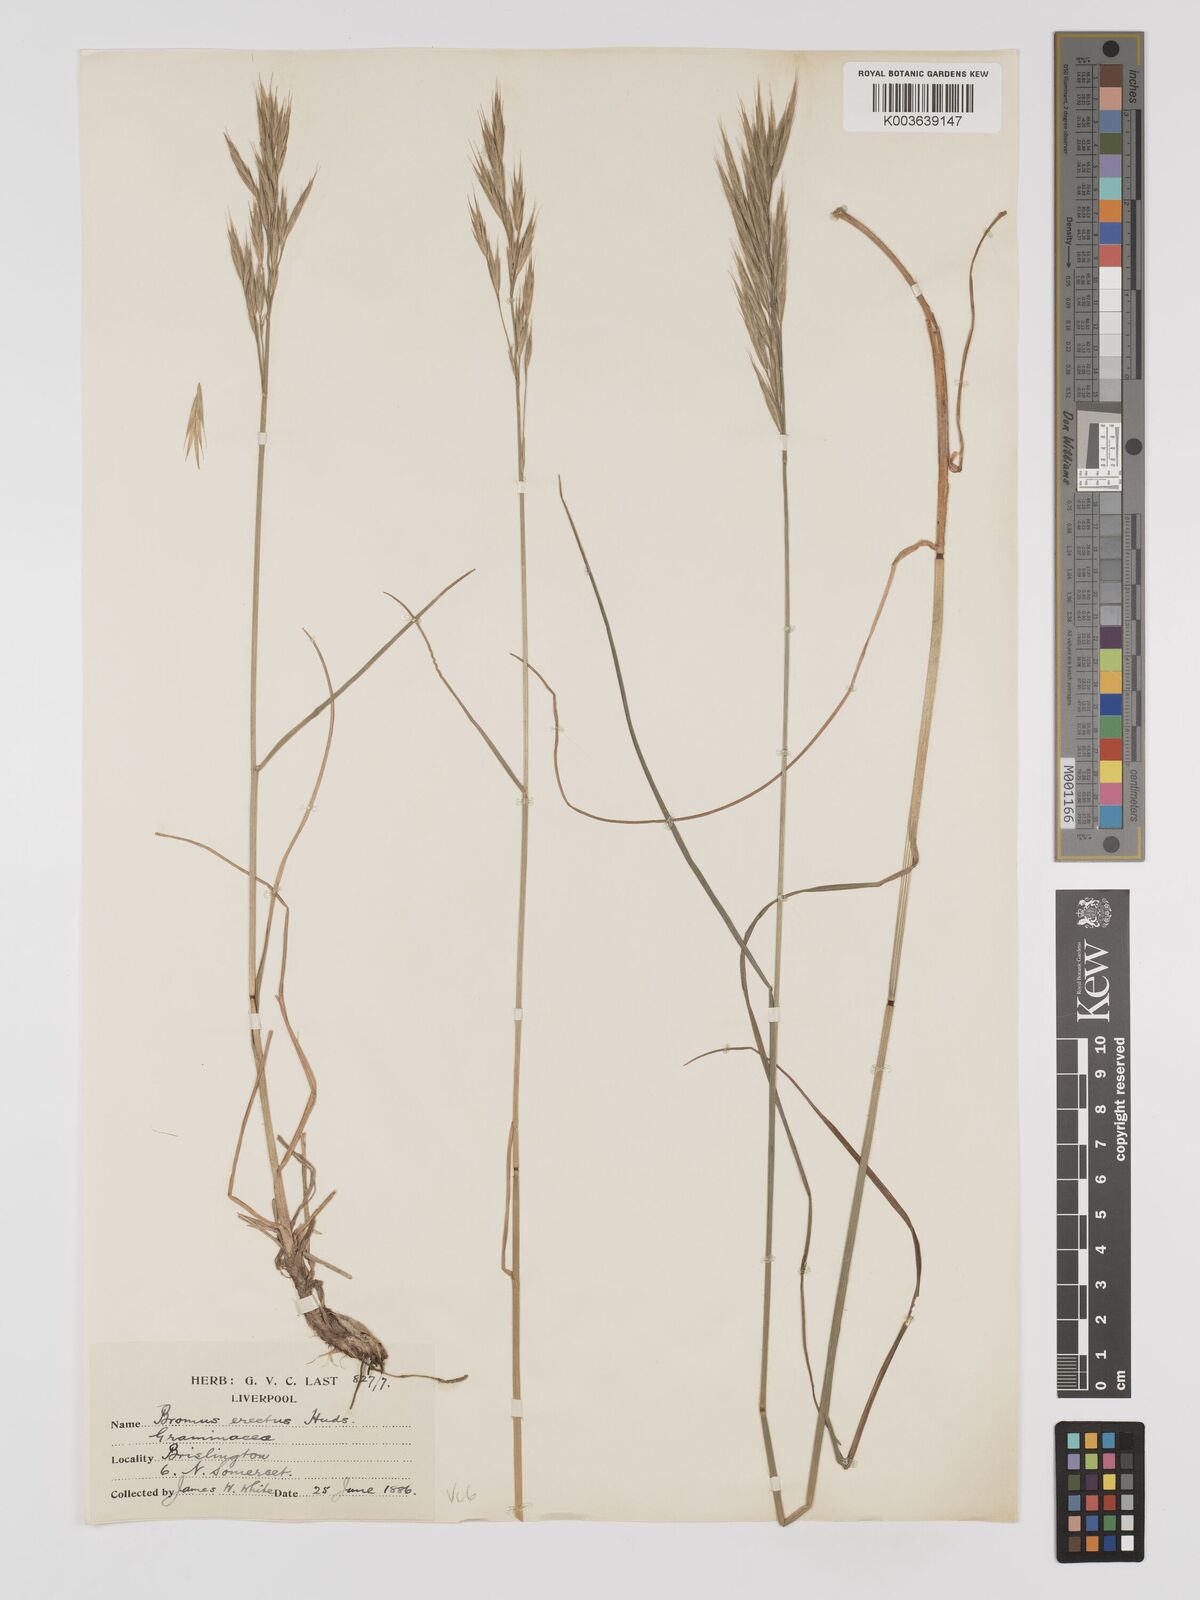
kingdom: Plantae
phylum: Tracheophyta
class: Liliopsida
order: Poales
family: Poaceae
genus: Bromus
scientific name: Bromus erectus
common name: Erect brome
